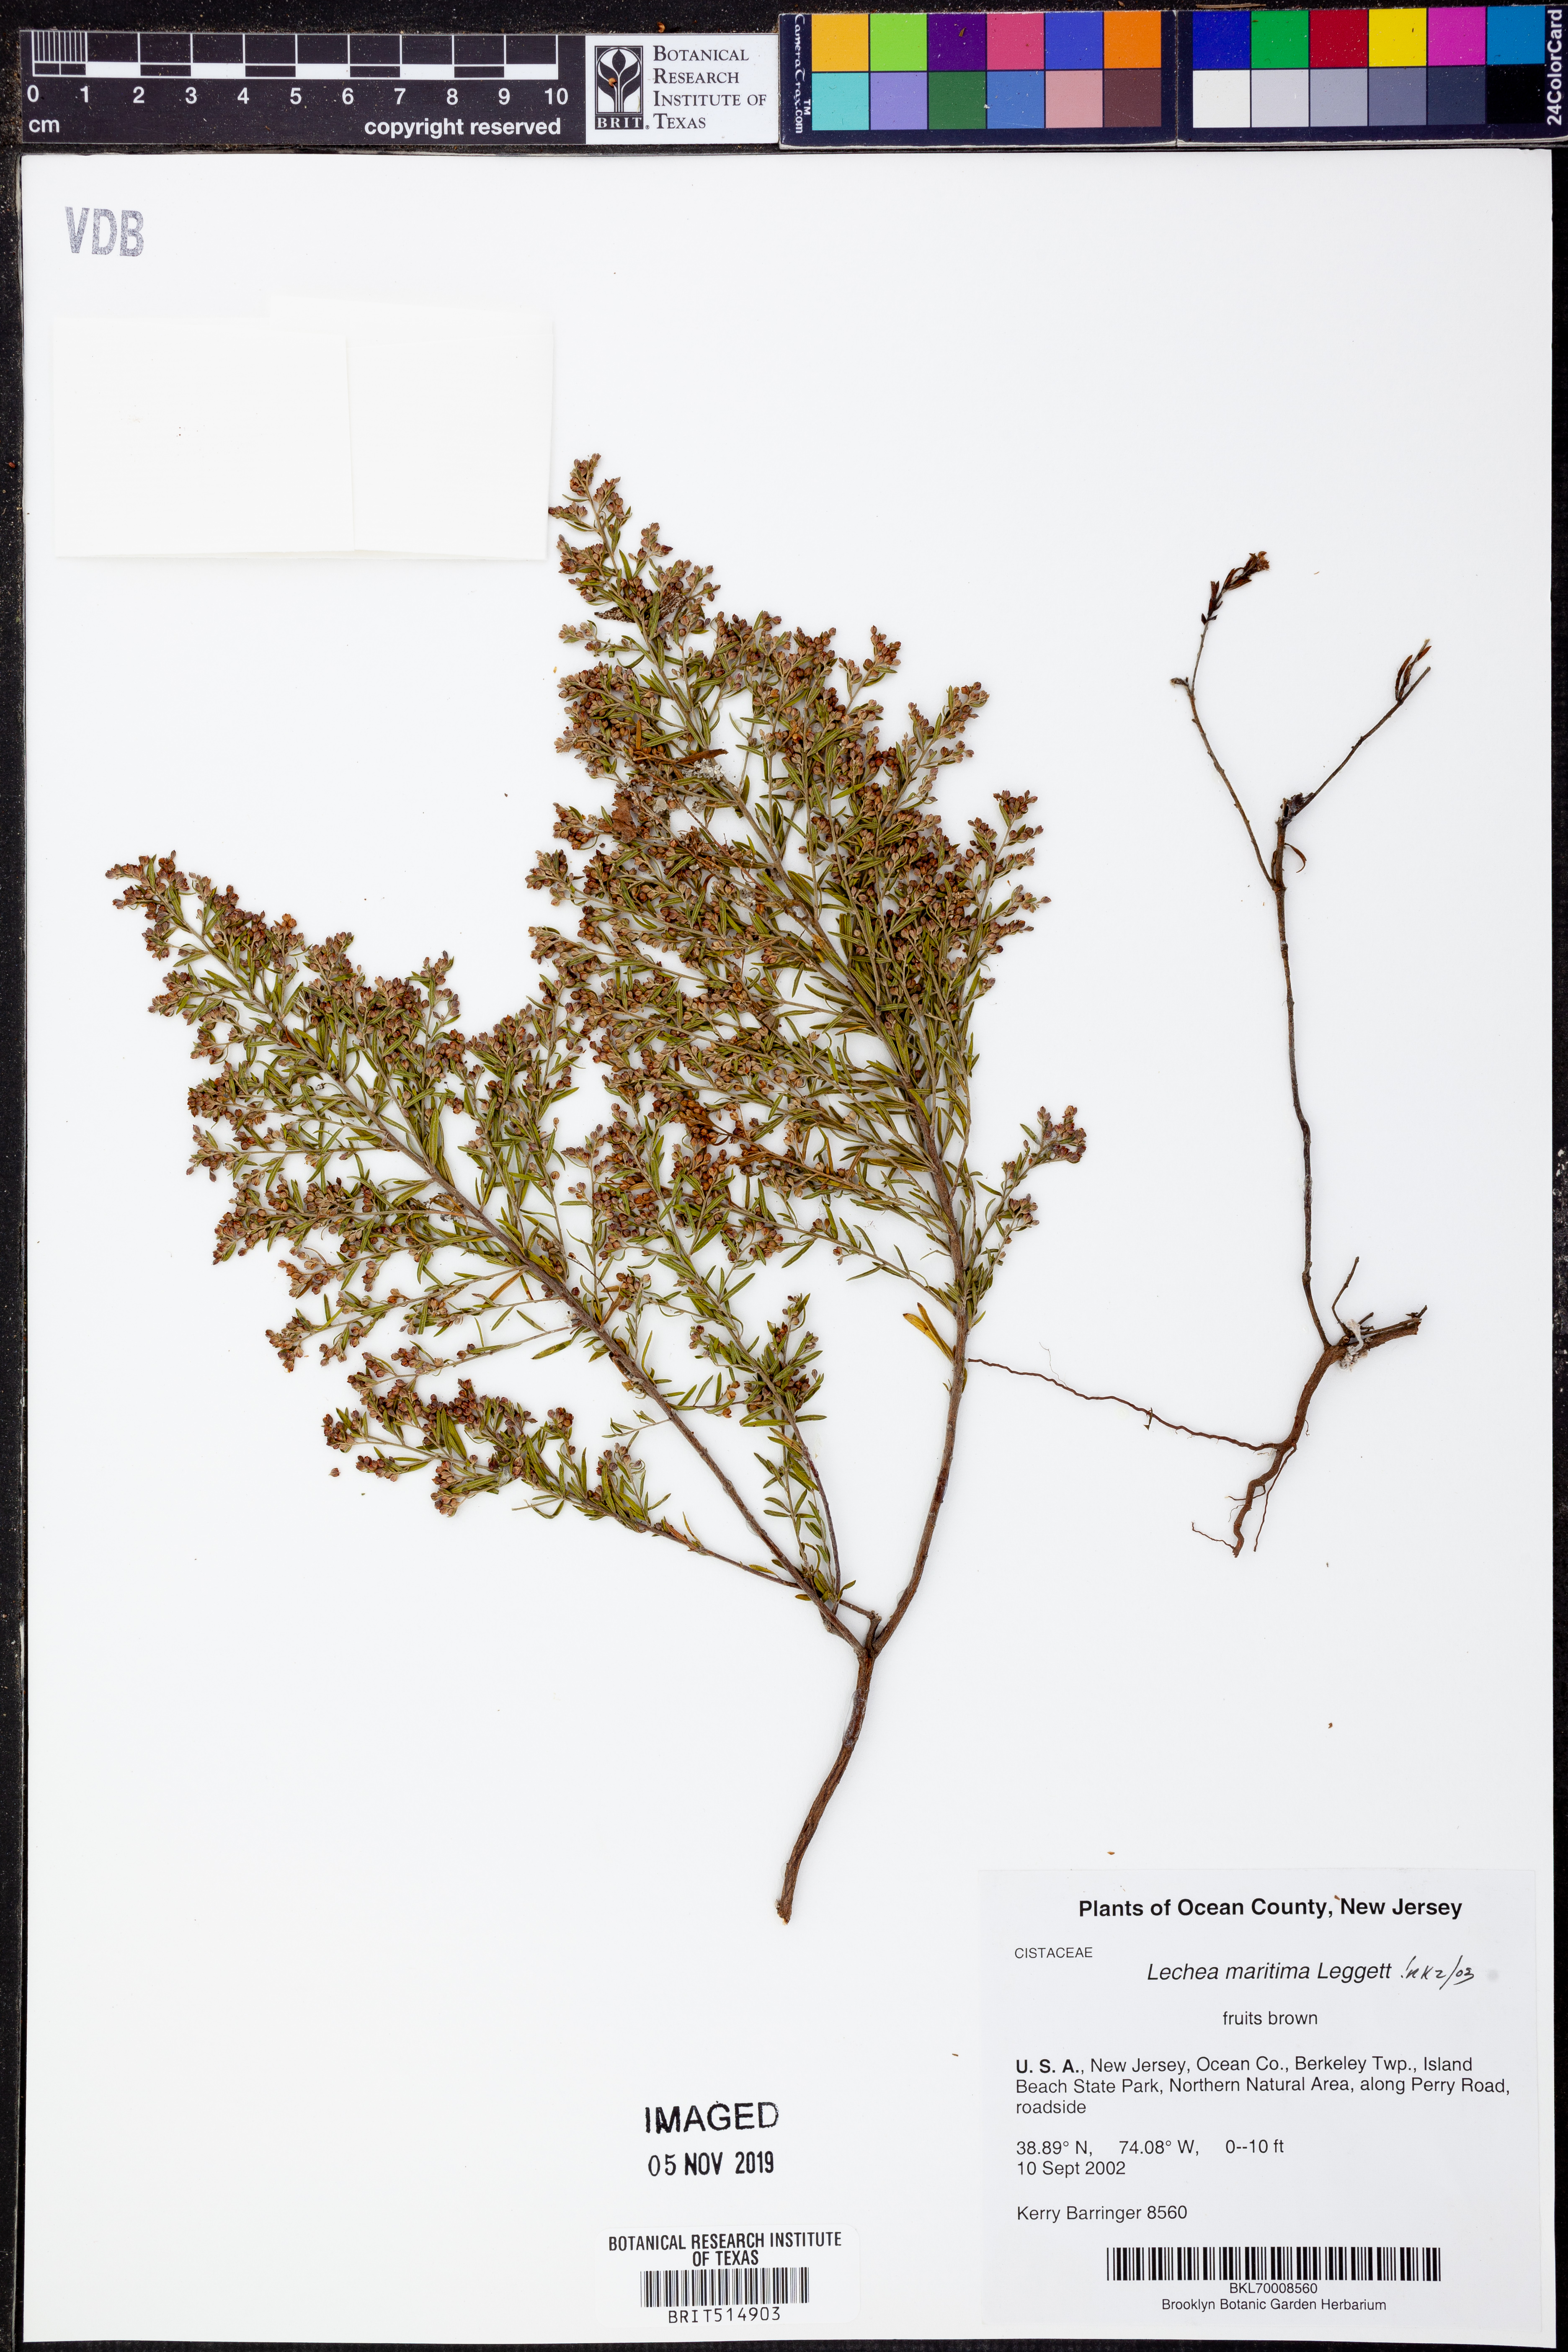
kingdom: Plantae
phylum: Tracheophyta
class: Magnoliopsida
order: Malvales
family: Cistaceae
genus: Lechea
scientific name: Lechea maritima
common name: Beach pinweed
